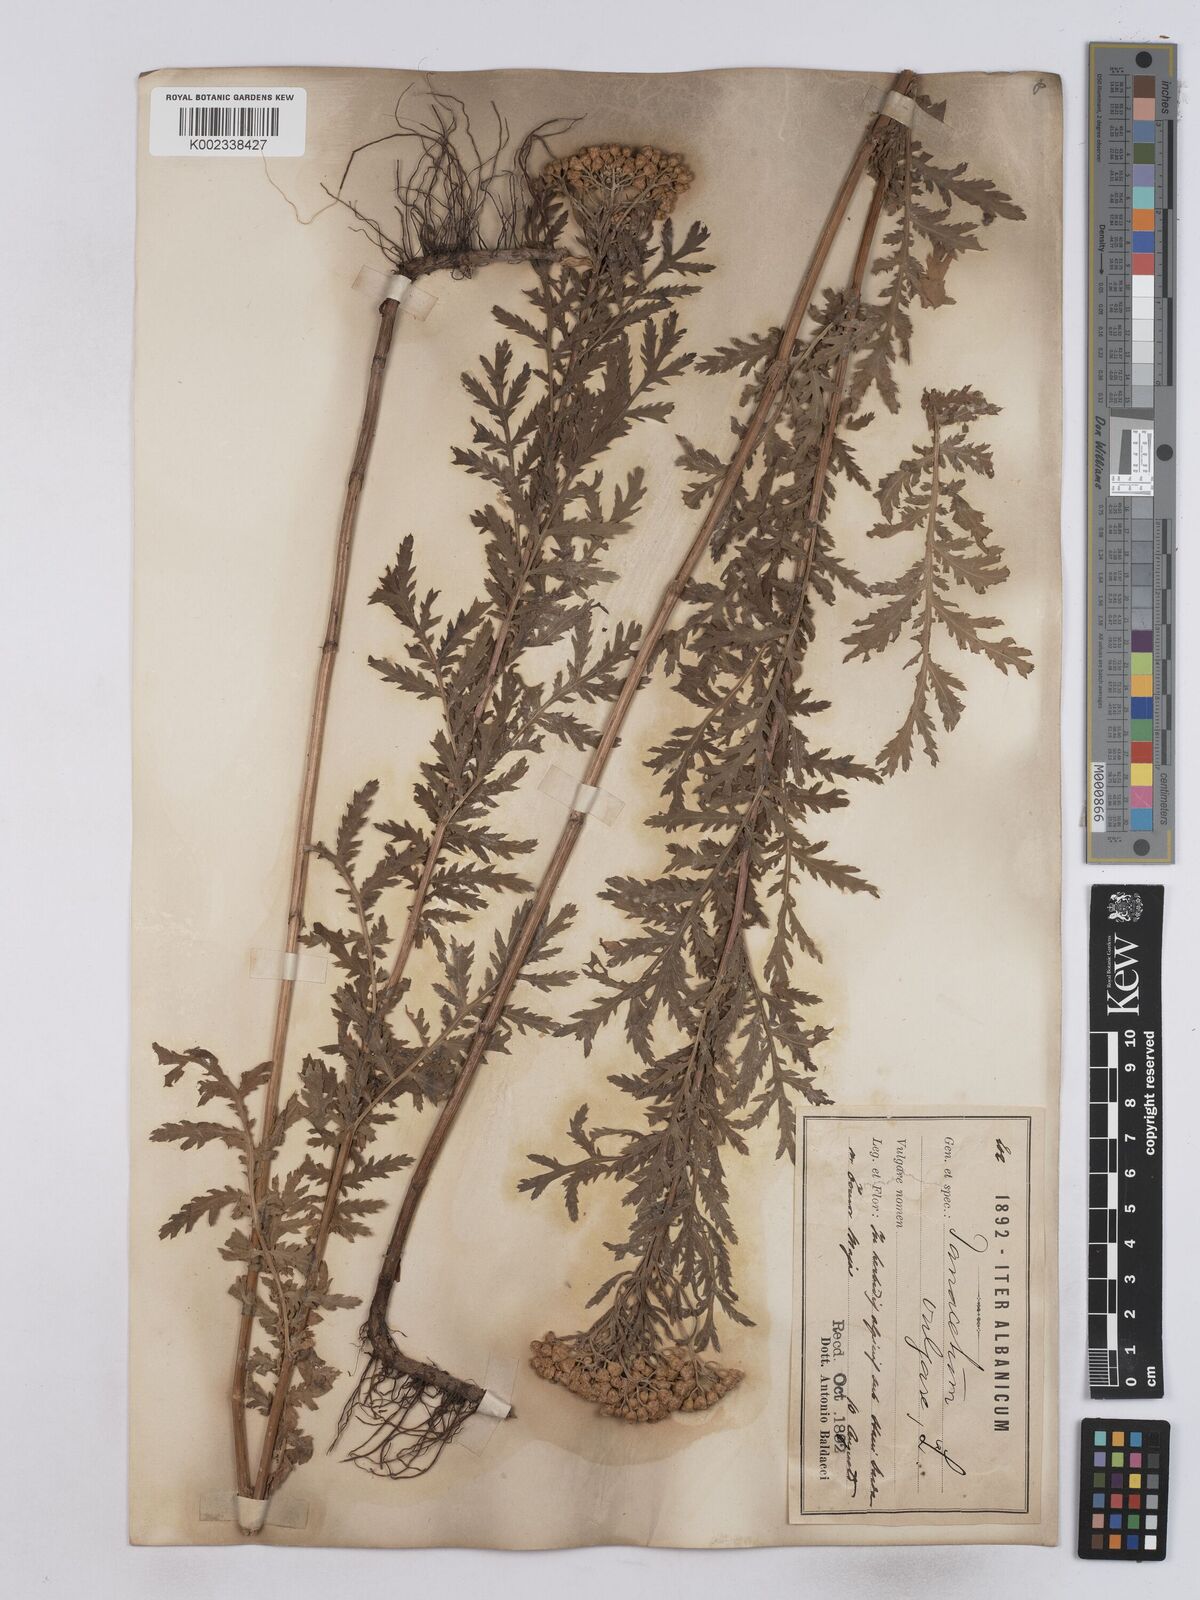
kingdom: Plantae
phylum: Tracheophyta
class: Magnoliopsida
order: Asterales
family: Asteraceae
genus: Tanacetum
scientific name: Tanacetum vulgare
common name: Common tansy
